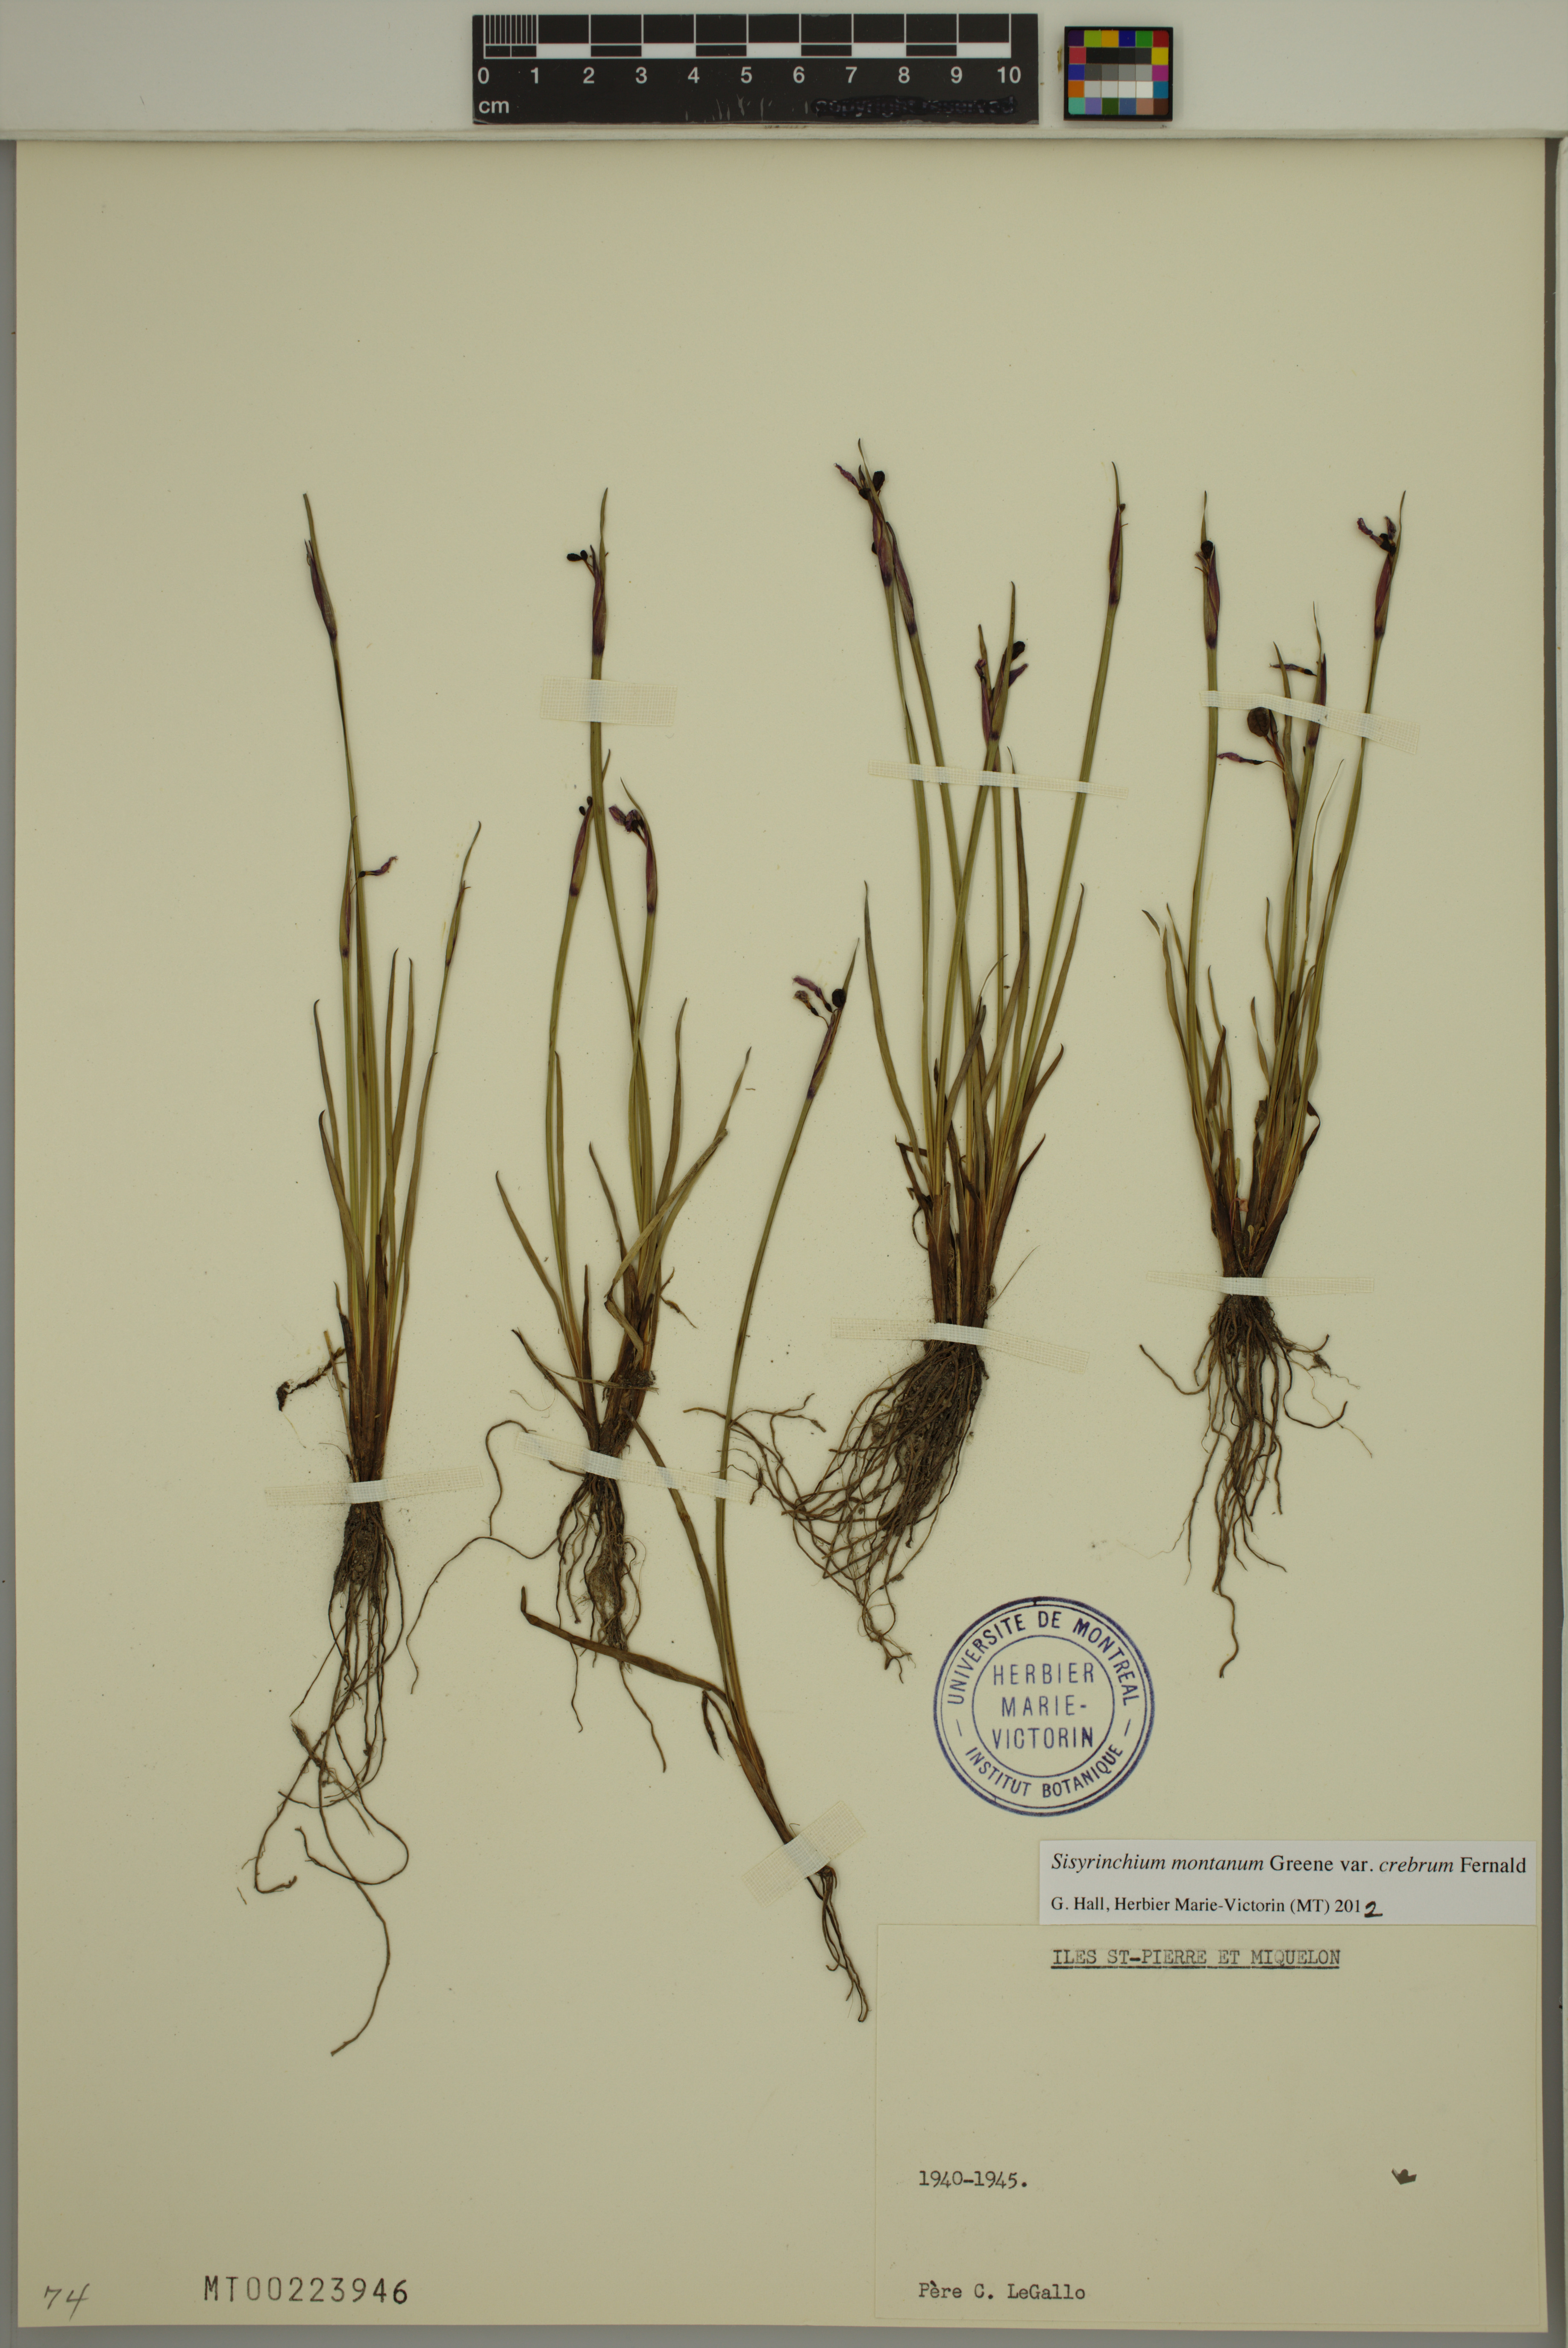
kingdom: Plantae
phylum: Tracheophyta
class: Liliopsida
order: Asparagales
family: Iridaceae
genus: Sisyrinchium
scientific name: Sisyrinchium montanum
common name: American blue-eyed-grass
